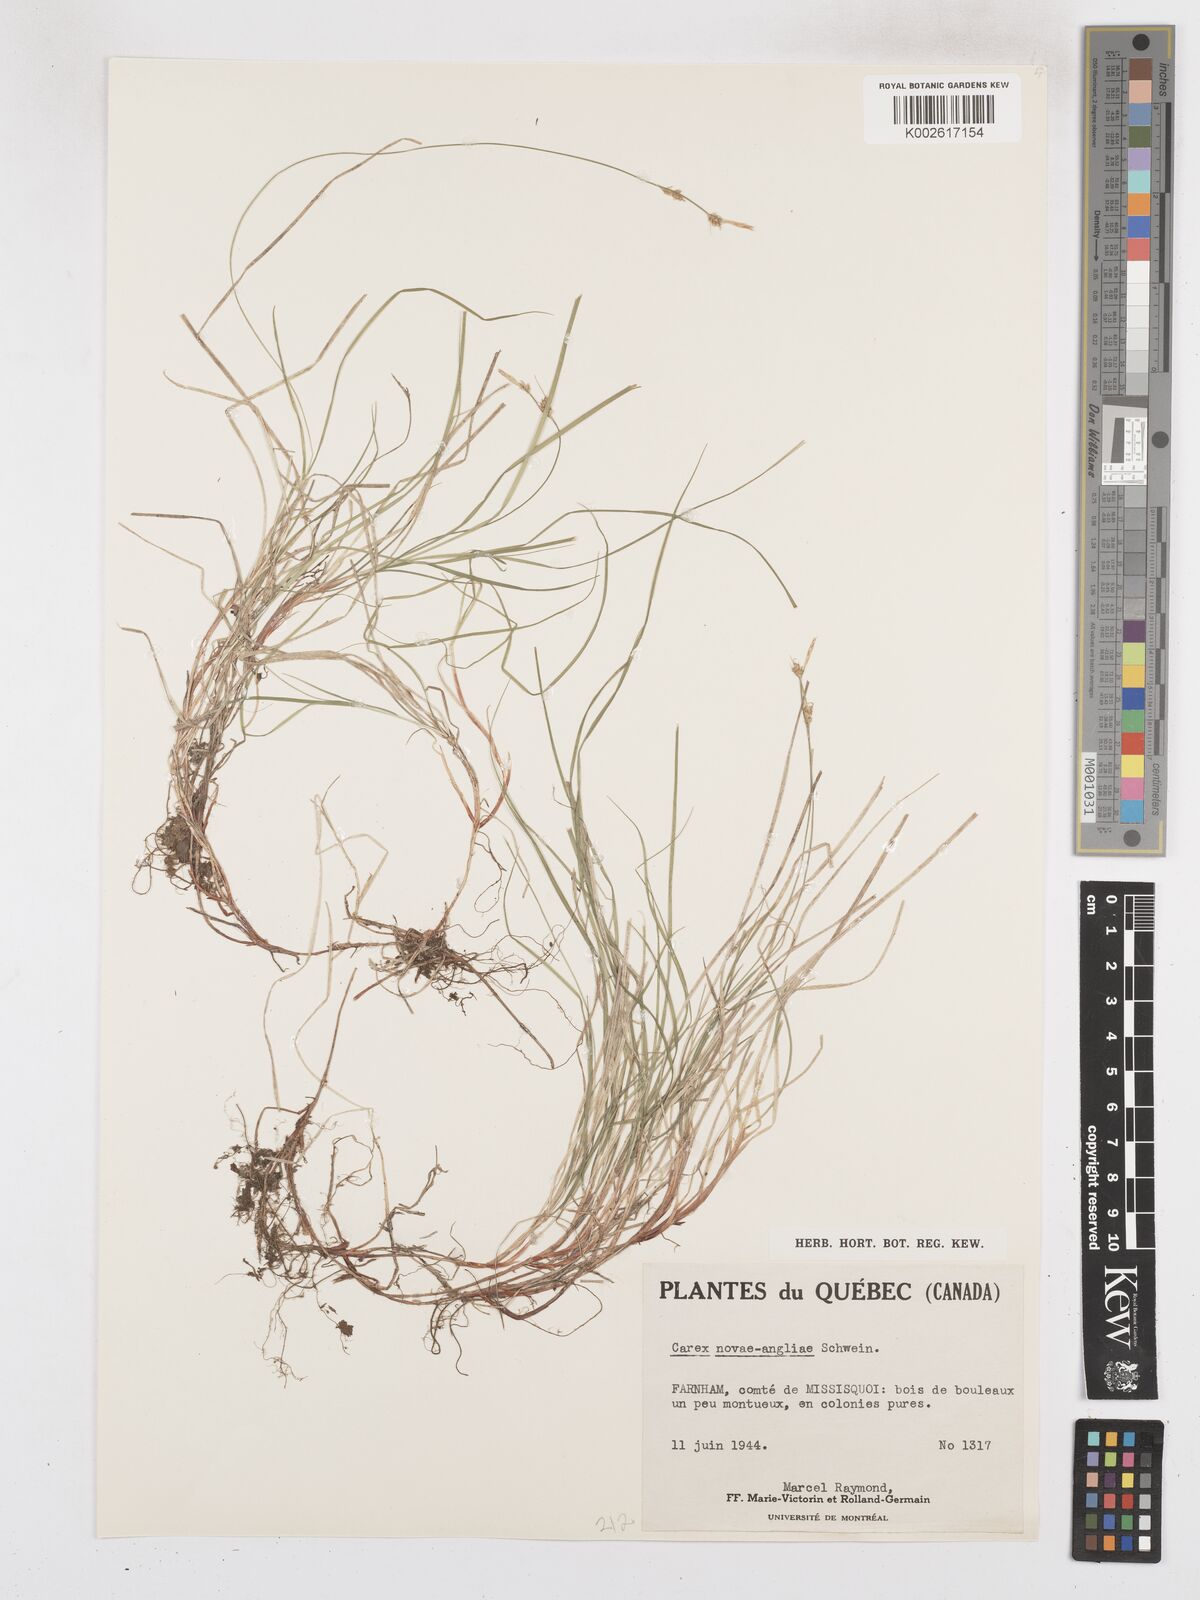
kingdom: Plantae
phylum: Tracheophyta
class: Liliopsida
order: Poales
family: Cyperaceae
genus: Carex
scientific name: Carex novae-angliae
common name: New england sedge
